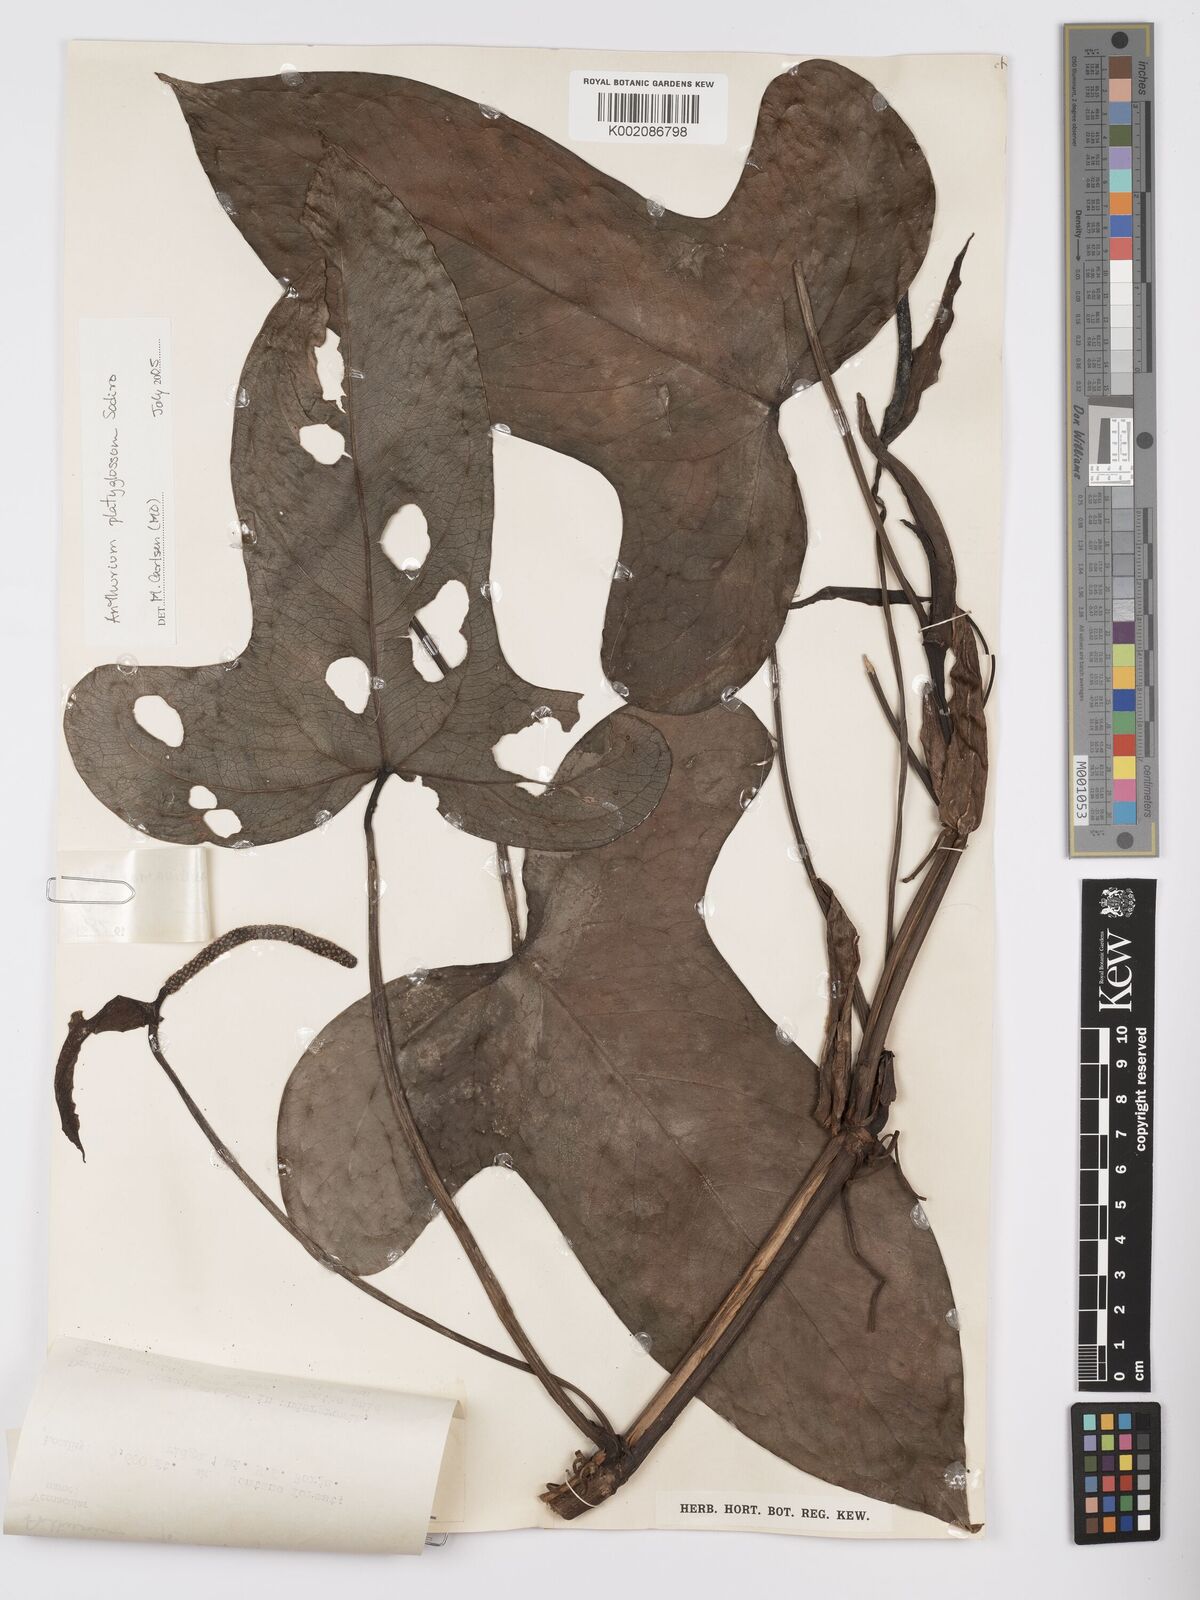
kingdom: Plantae
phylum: Tracheophyta
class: Liliopsida
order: Alismatales
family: Araceae
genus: Anthurium
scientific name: Anthurium platyglossum
